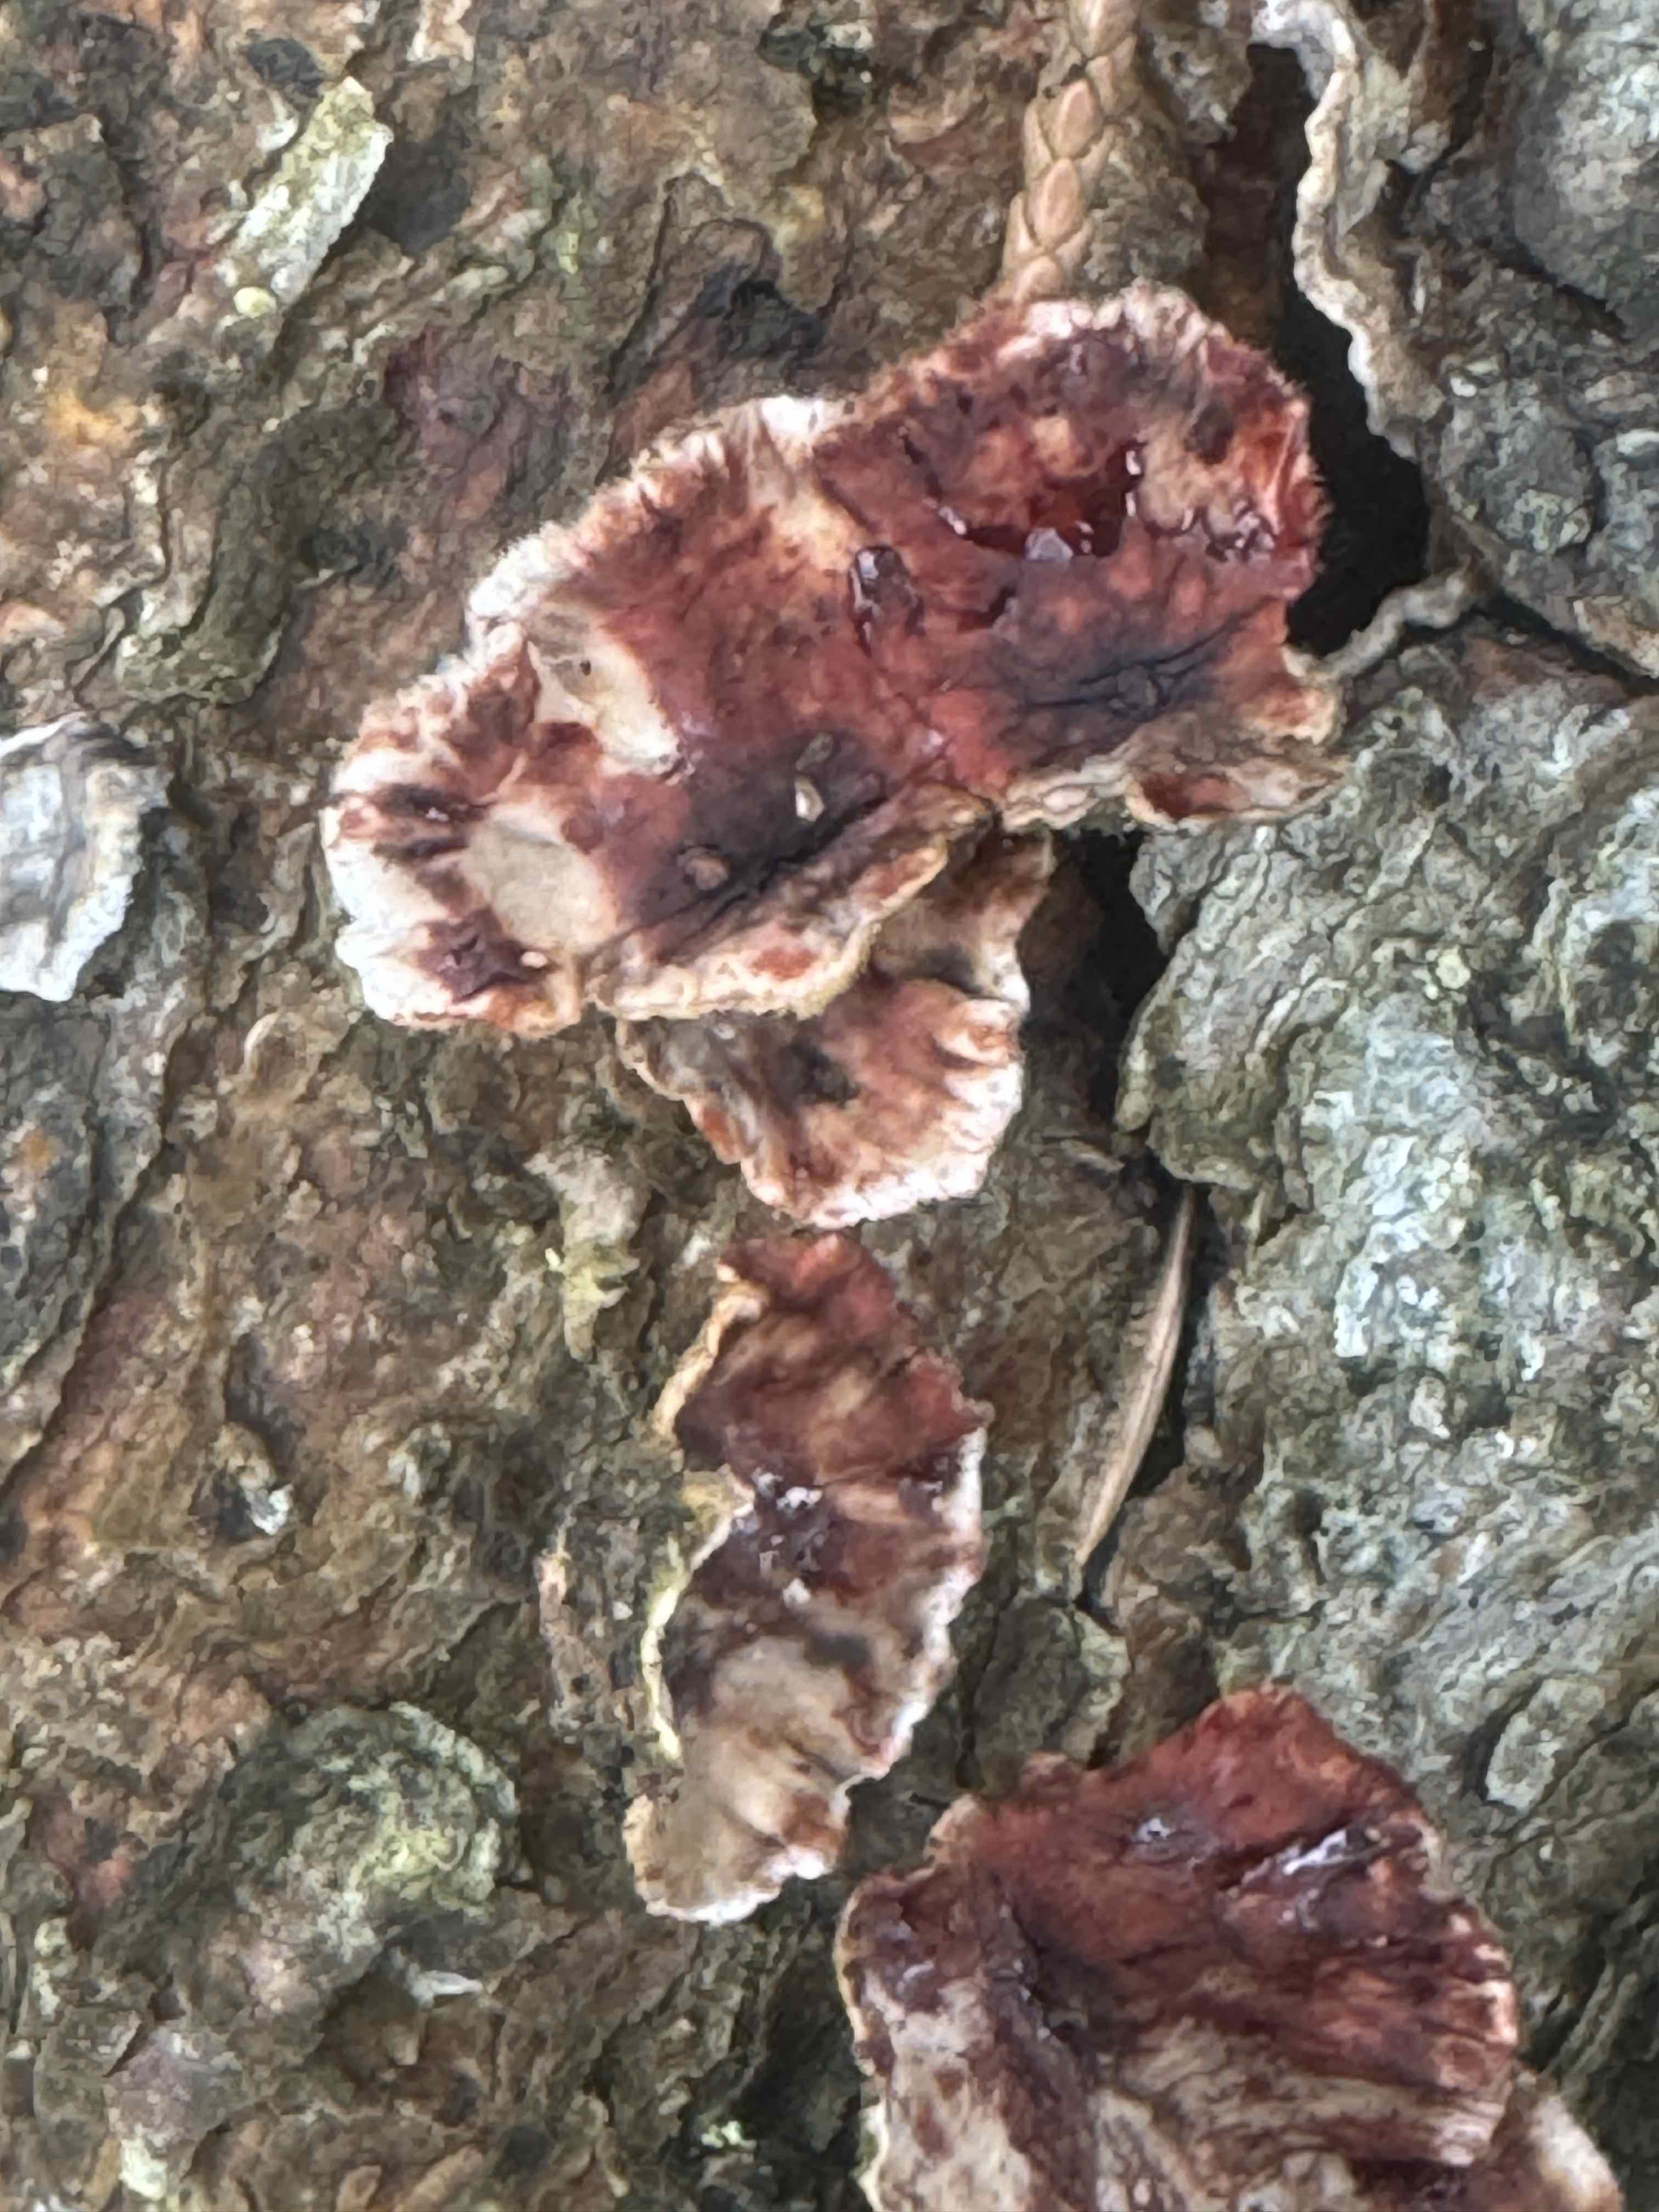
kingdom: Fungi
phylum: Basidiomycota
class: Agaricomycetes
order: Russulales
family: Stereaceae
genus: Stereum
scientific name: Stereum sanguinolentum
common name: blødende lædersvamp
